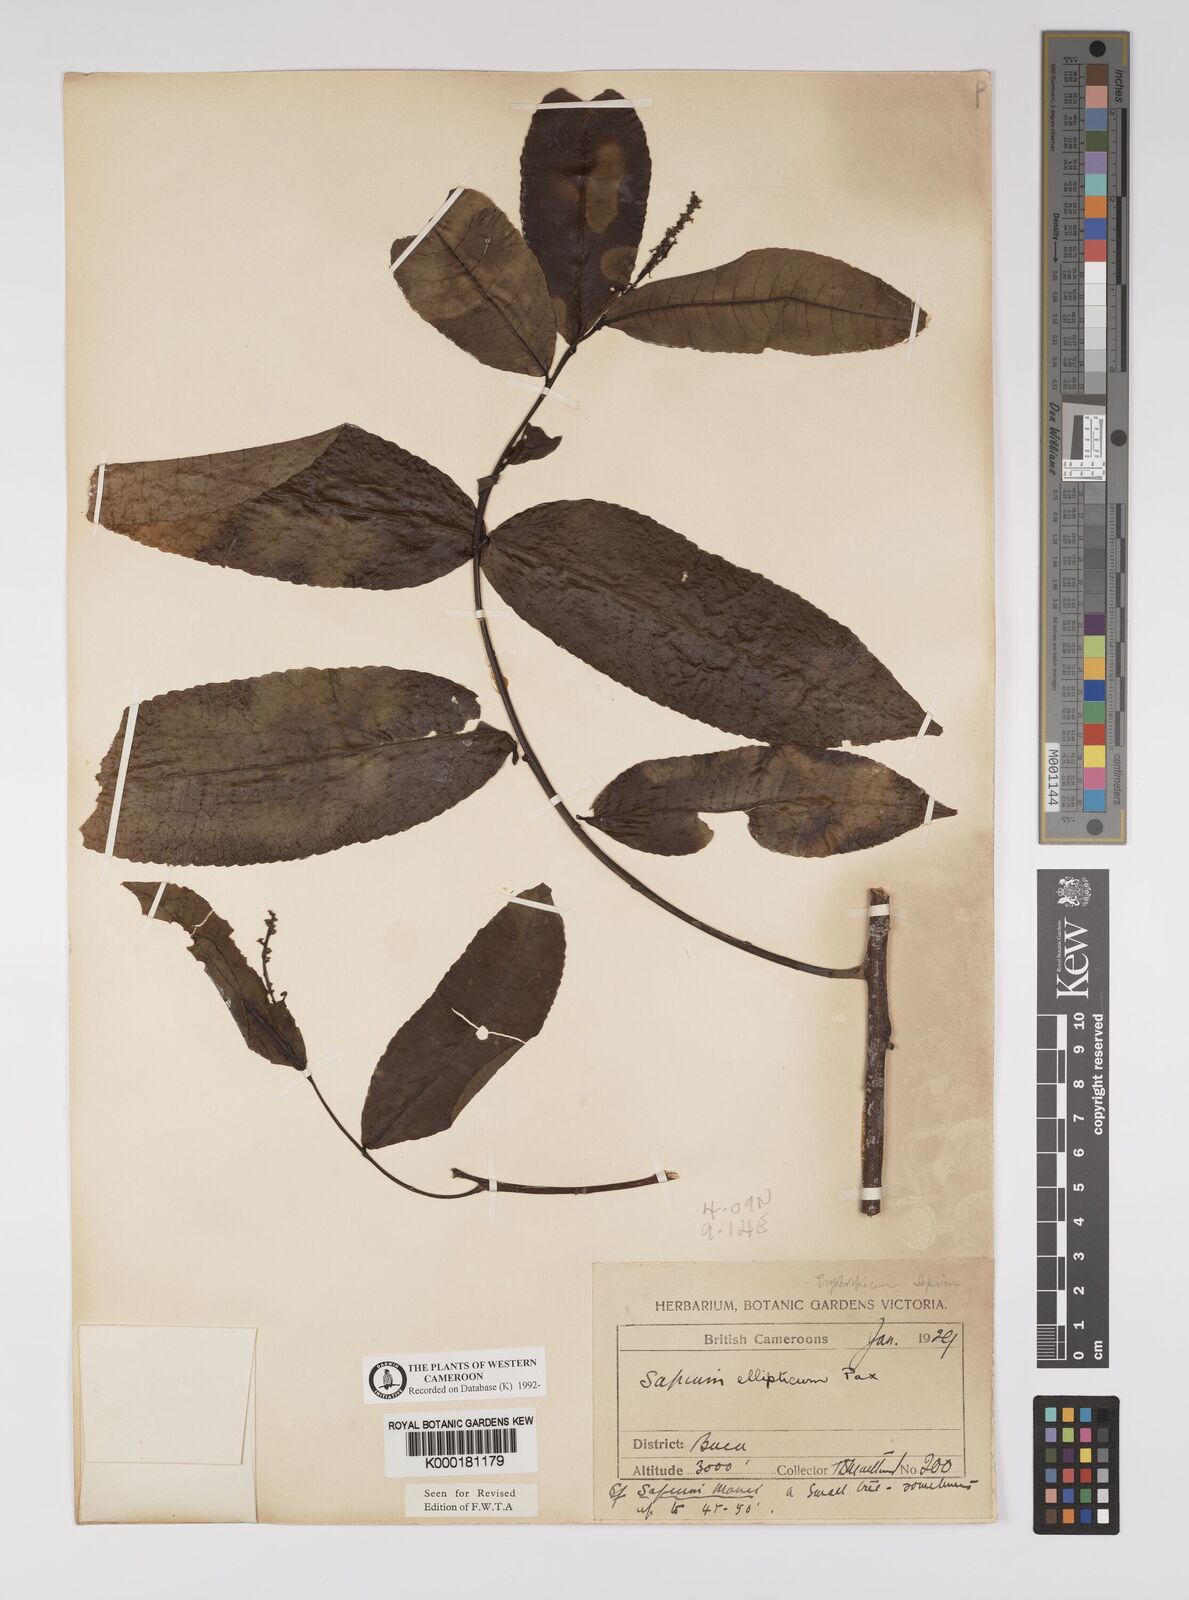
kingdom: Plantae
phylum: Tracheophyta
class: Magnoliopsida
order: Malpighiales
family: Euphorbiaceae
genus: Shirakiopsis
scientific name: Shirakiopsis elliptica
